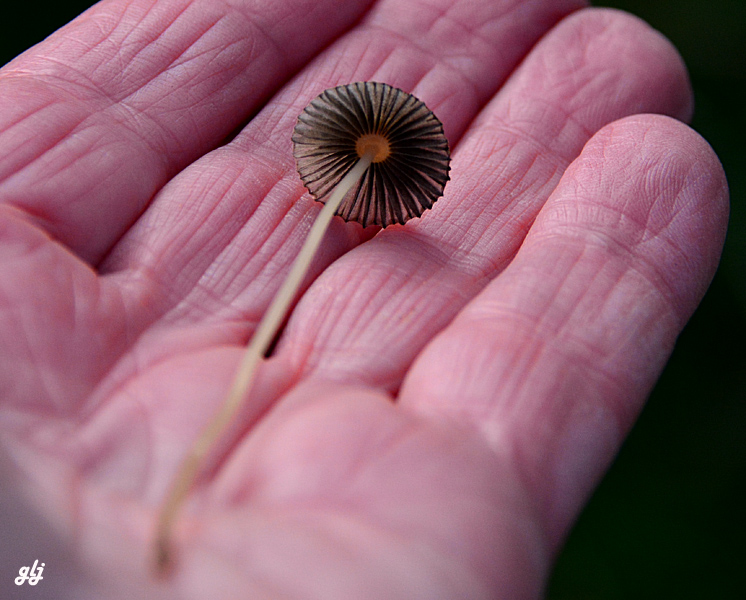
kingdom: Fungi
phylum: Basidiomycota
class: Agaricomycetes
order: Agaricales
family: Psathyrellaceae
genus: Parasola
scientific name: Parasola
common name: hjulhat
